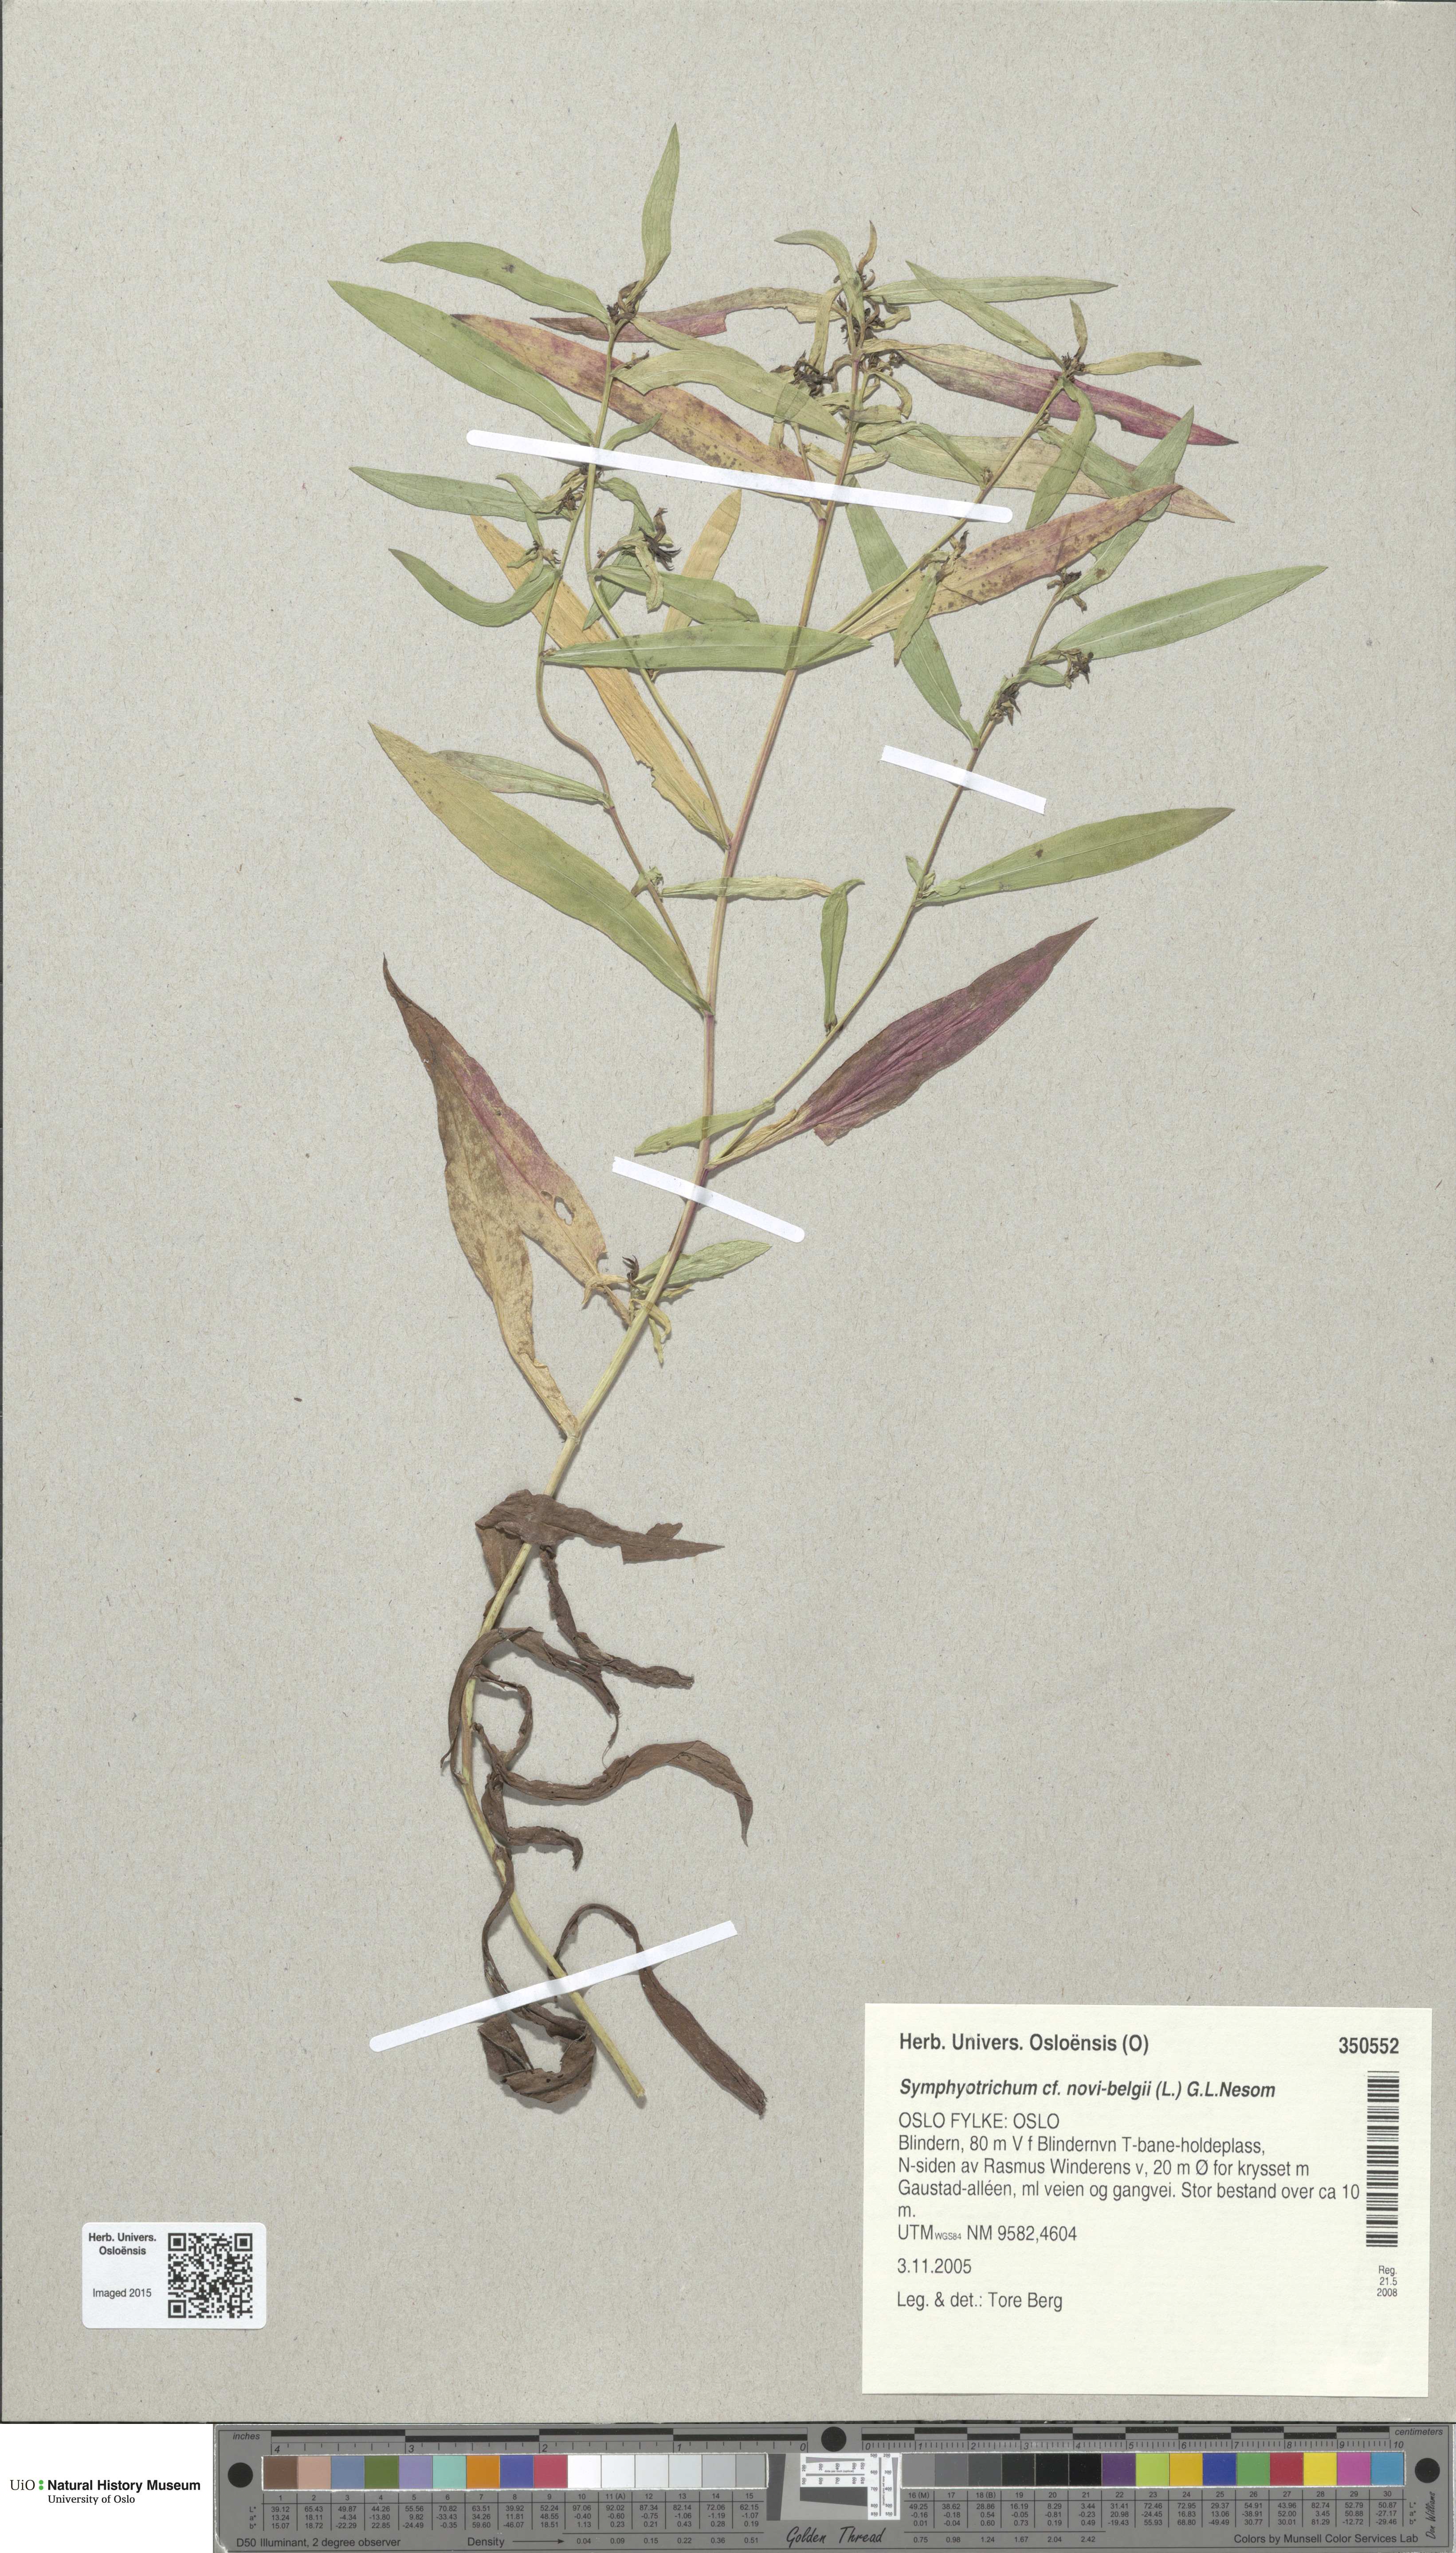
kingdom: Plantae
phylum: Tracheophyta
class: Magnoliopsida
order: Asterales
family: Asteraceae
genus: Symphyotrichum
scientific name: Symphyotrichum versicolor
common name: Late michaelmas daisy
